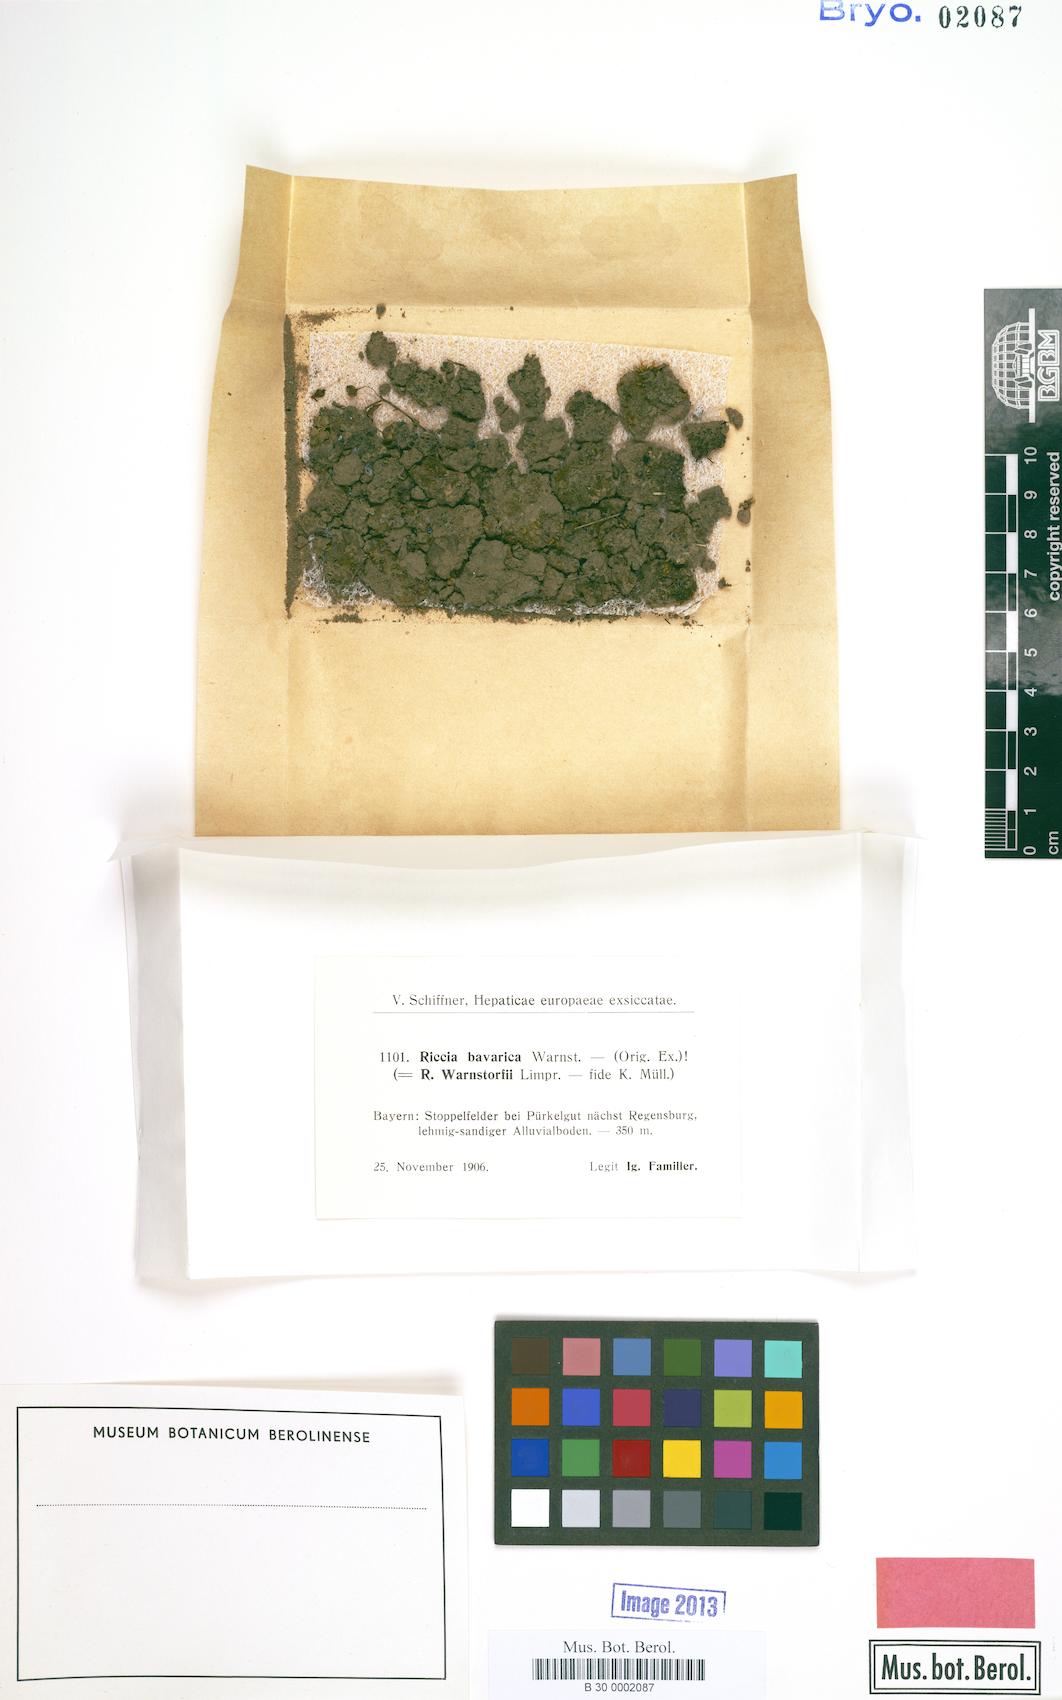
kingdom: Plantae
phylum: Marchantiophyta
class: Marchantiopsida
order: Marchantiales
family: Ricciaceae
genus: Riccia
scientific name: Riccia warnstorfii
